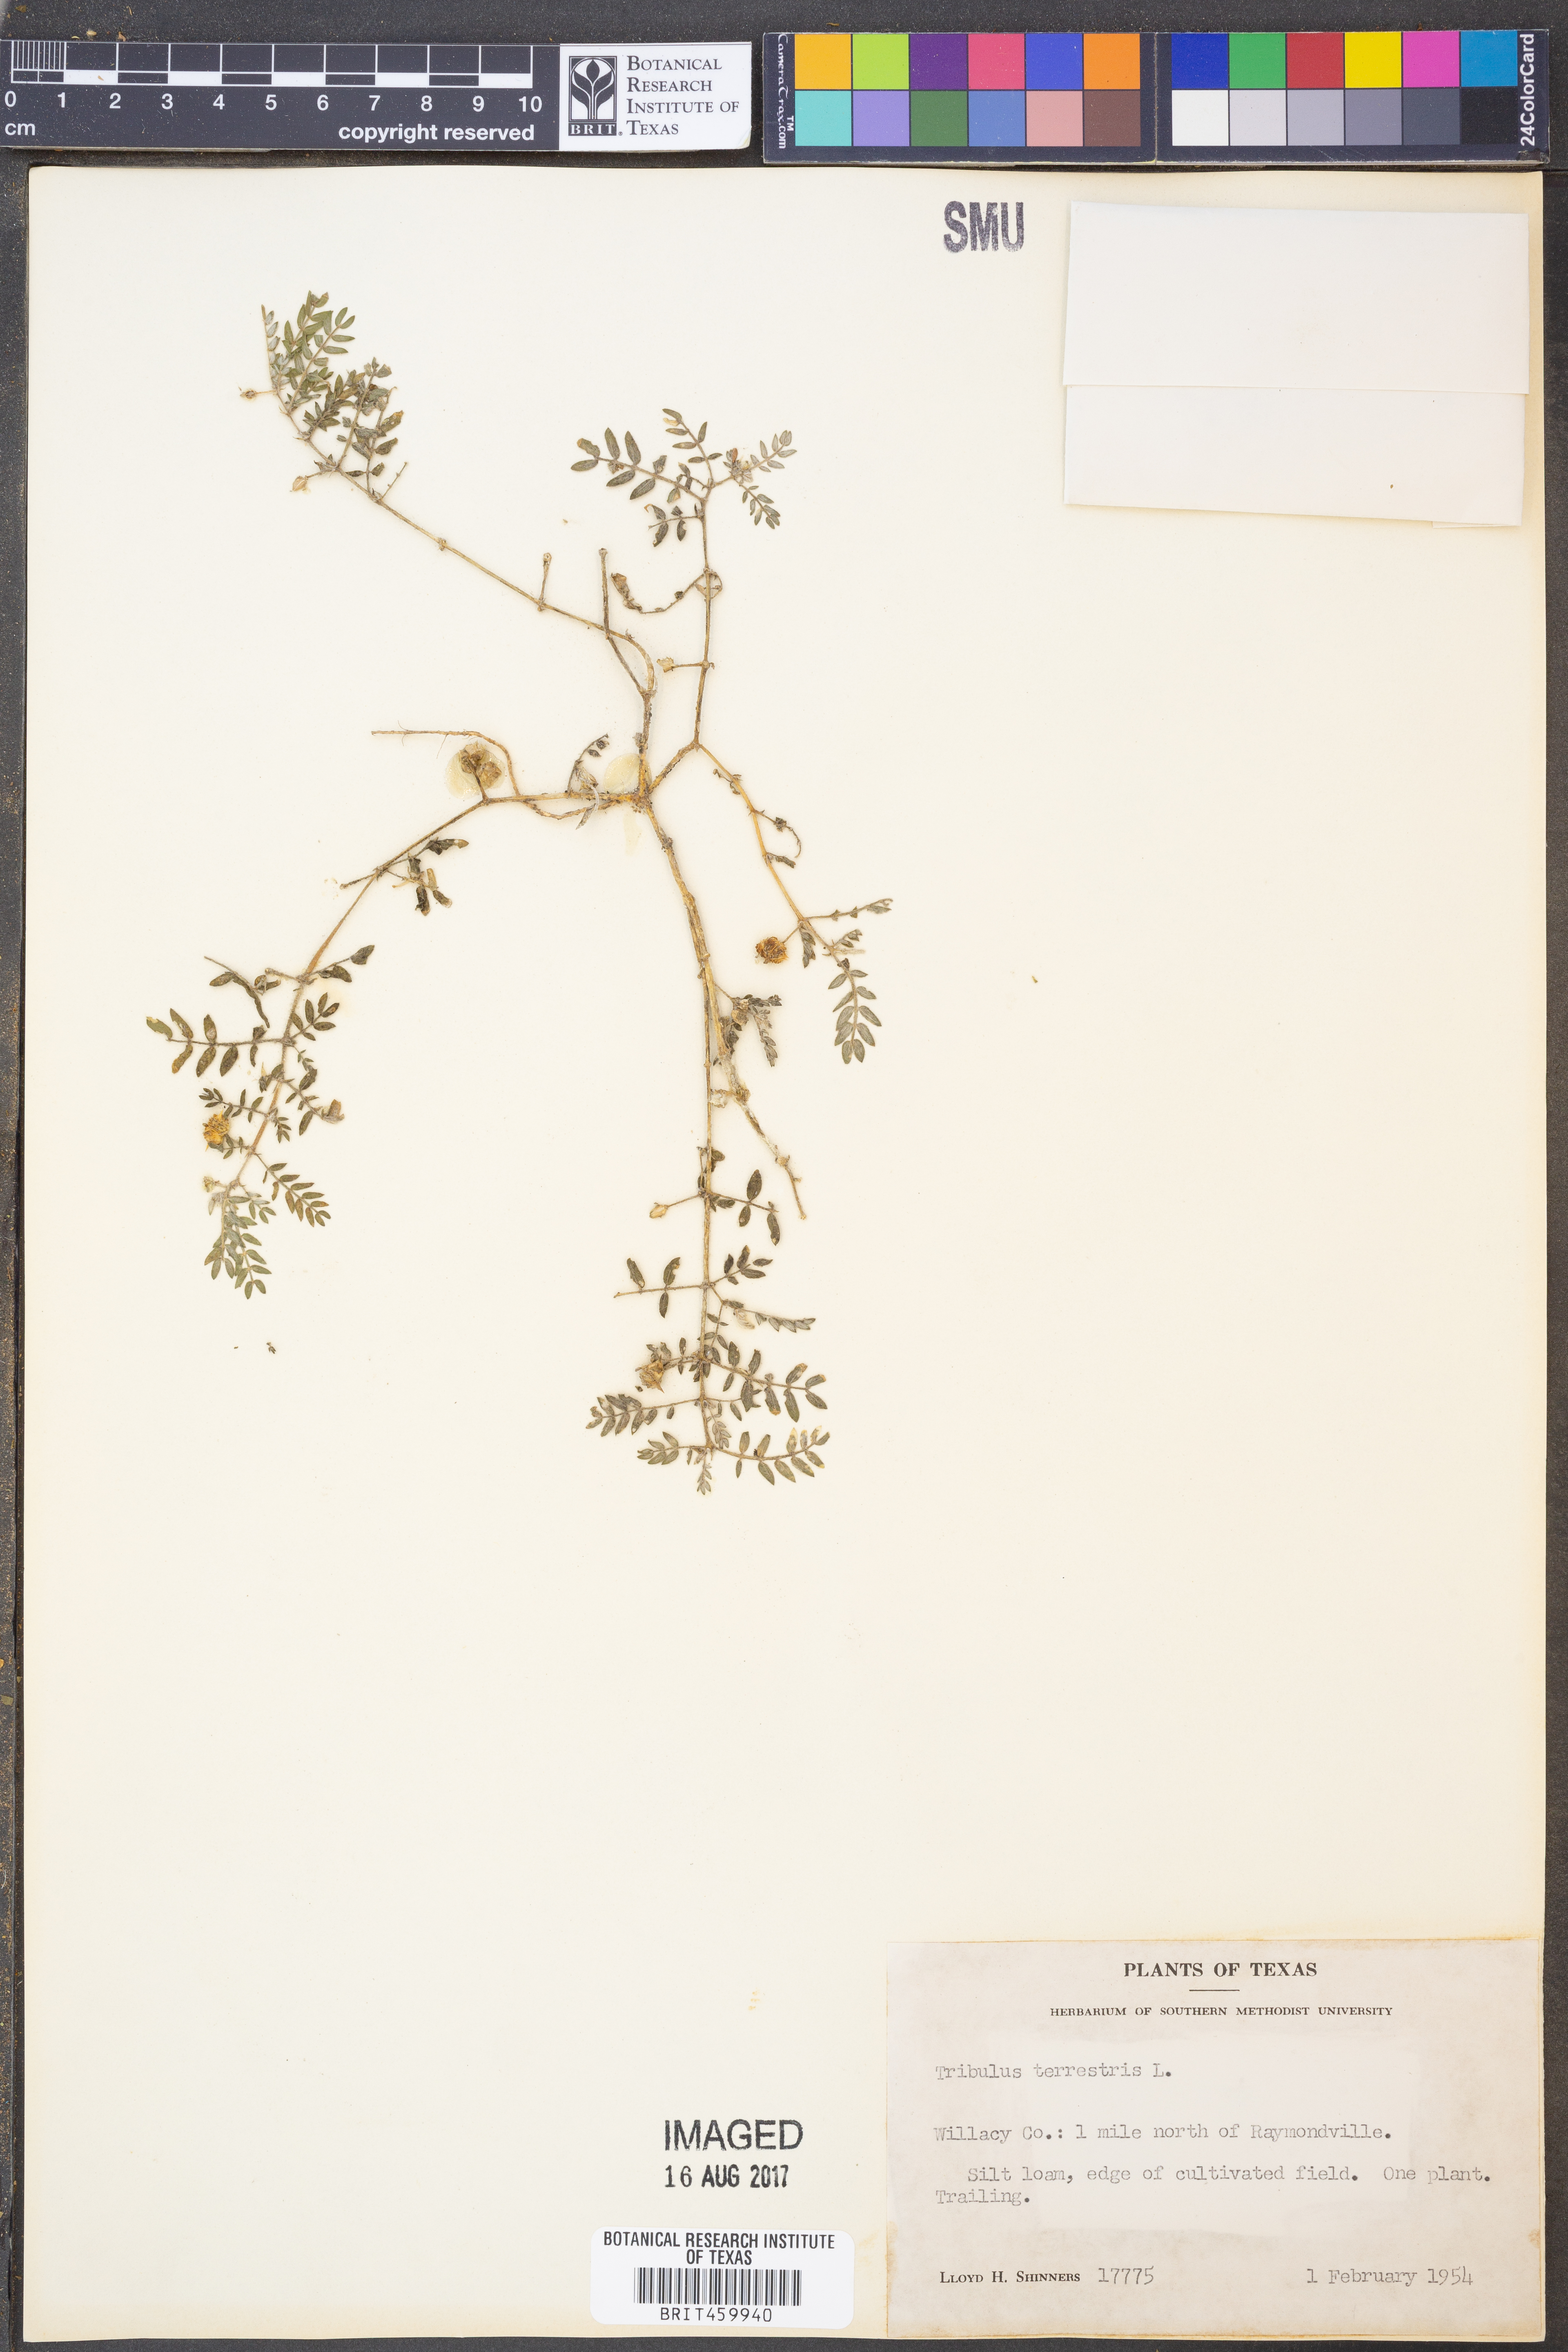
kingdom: Plantae
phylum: Tracheophyta
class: Magnoliopsida
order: Zygophyllales
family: Zygophyllaceae
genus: Tribulus
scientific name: Tribulus terrestris
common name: Puncturevine
